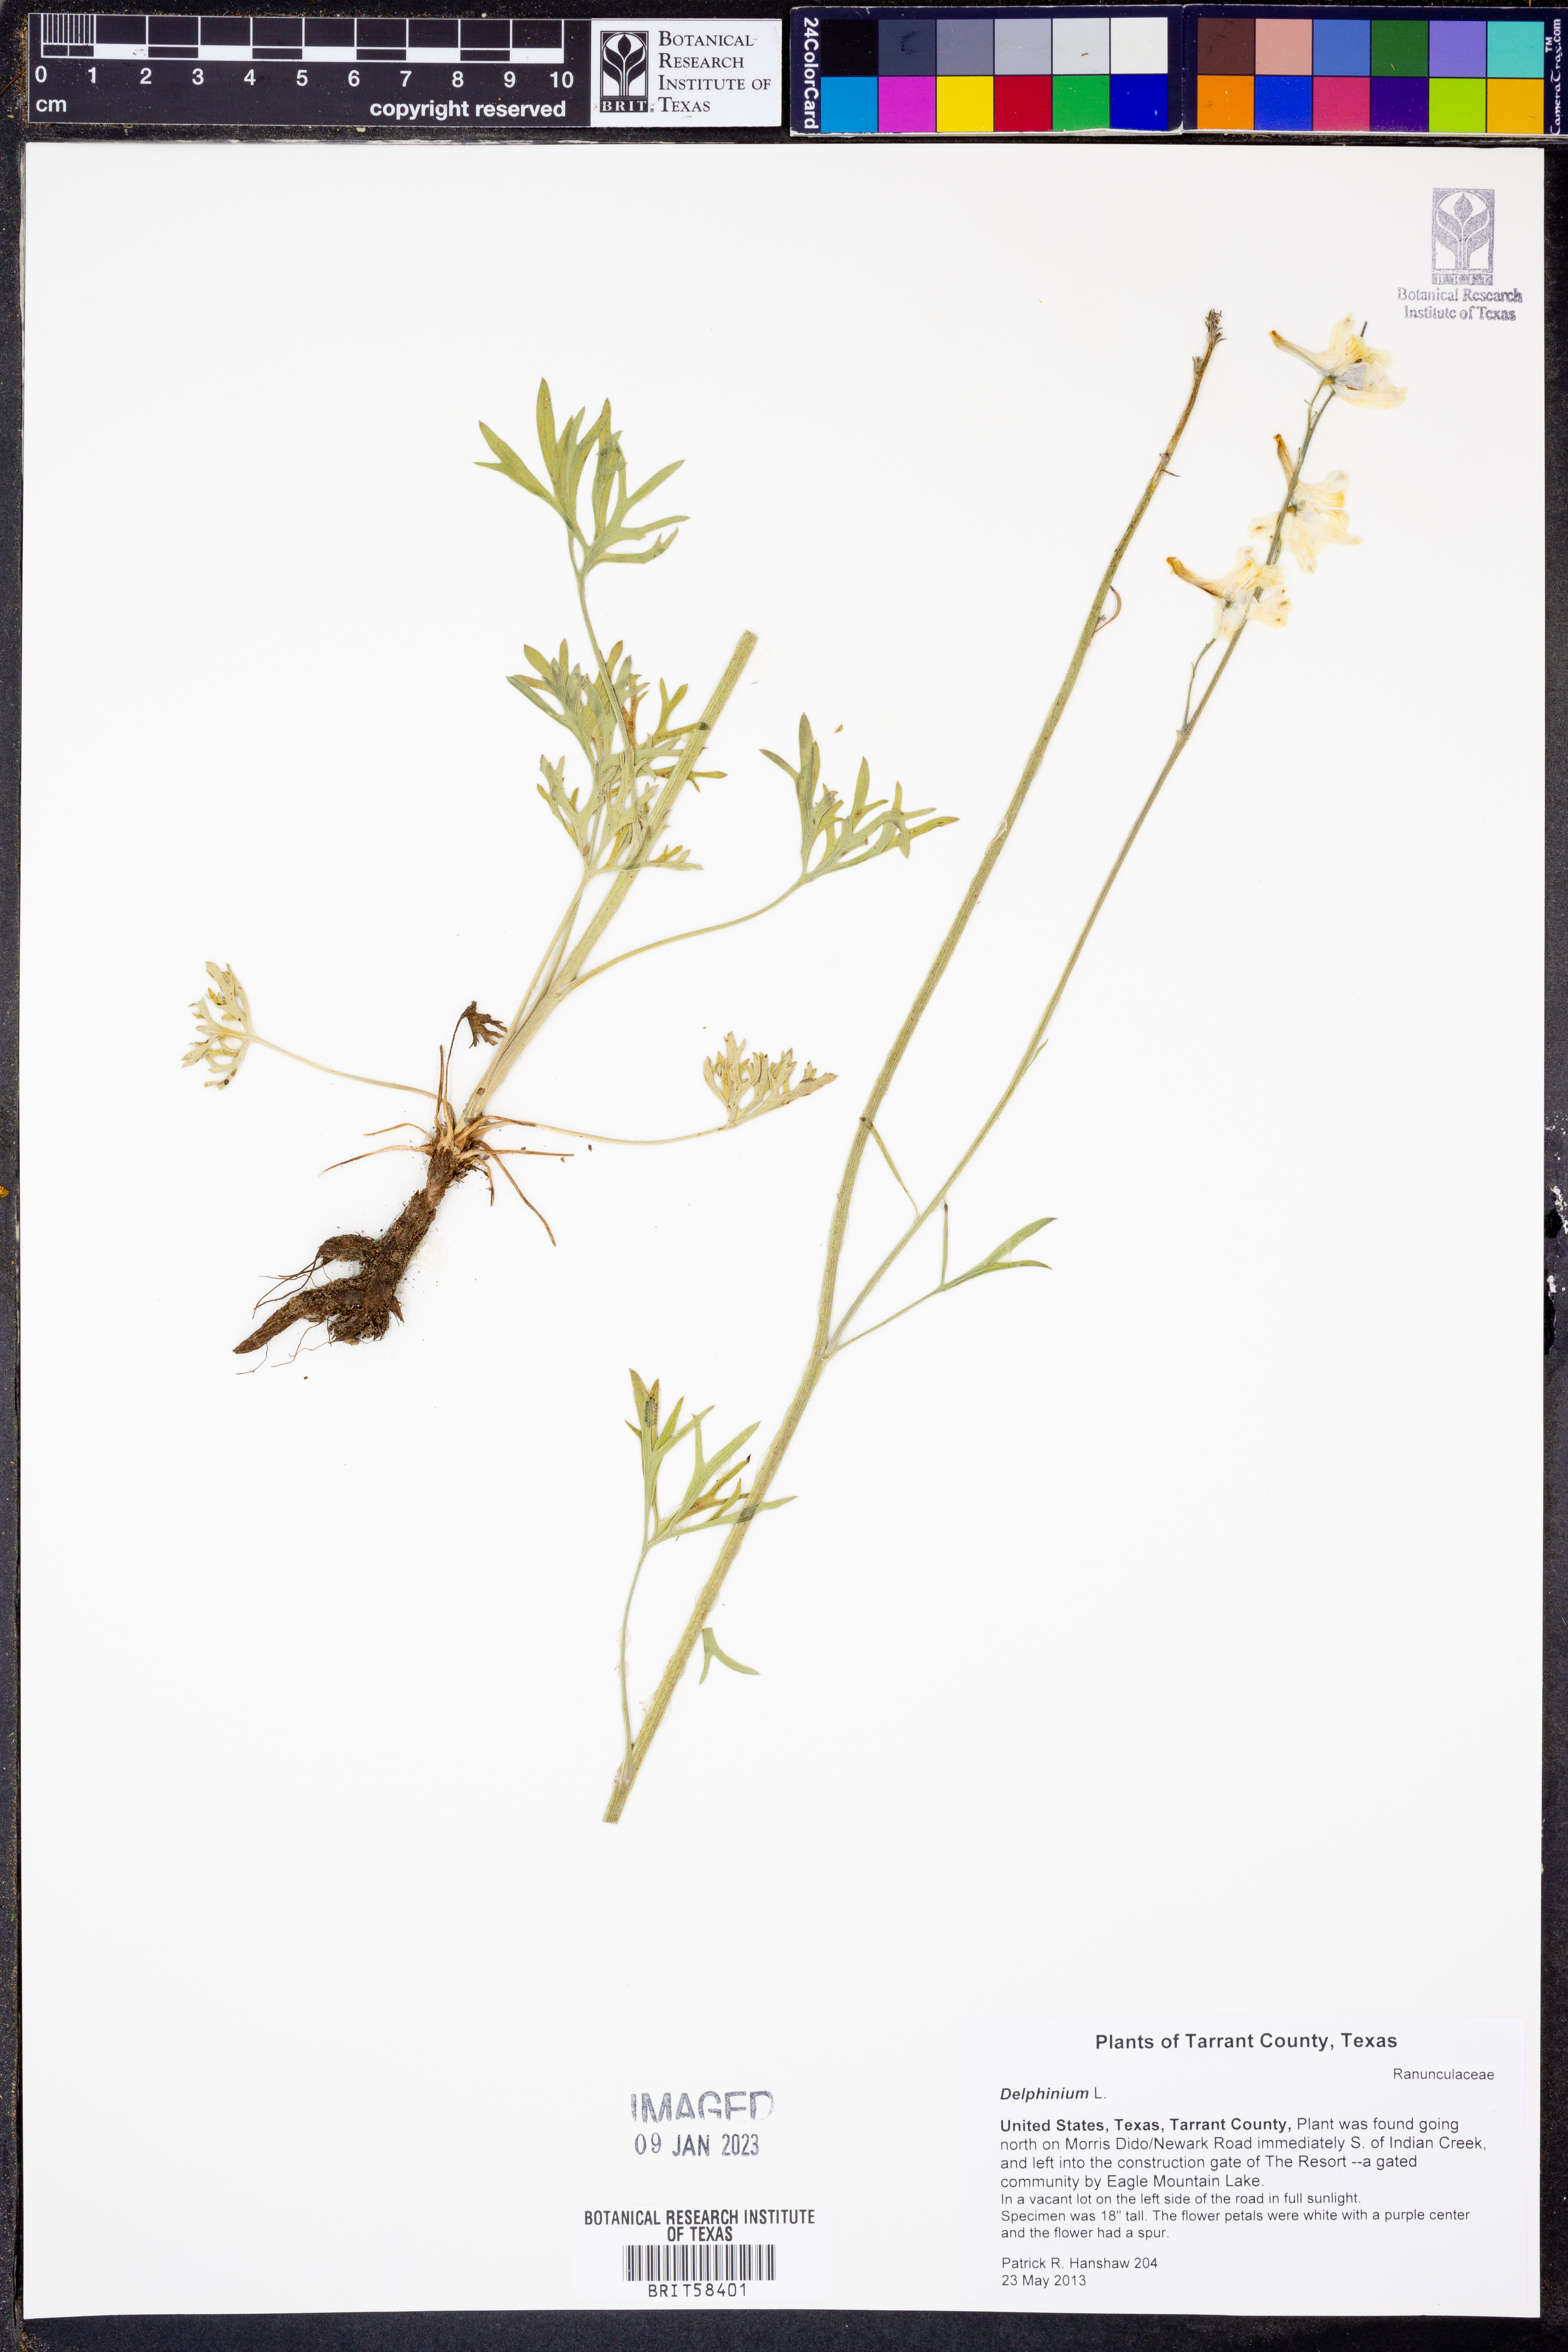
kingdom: Plantae
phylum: Tracheophyta
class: Magnoliopsida
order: Ranunculales
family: Ranunculaceae
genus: Delphinium
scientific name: Delphinium
